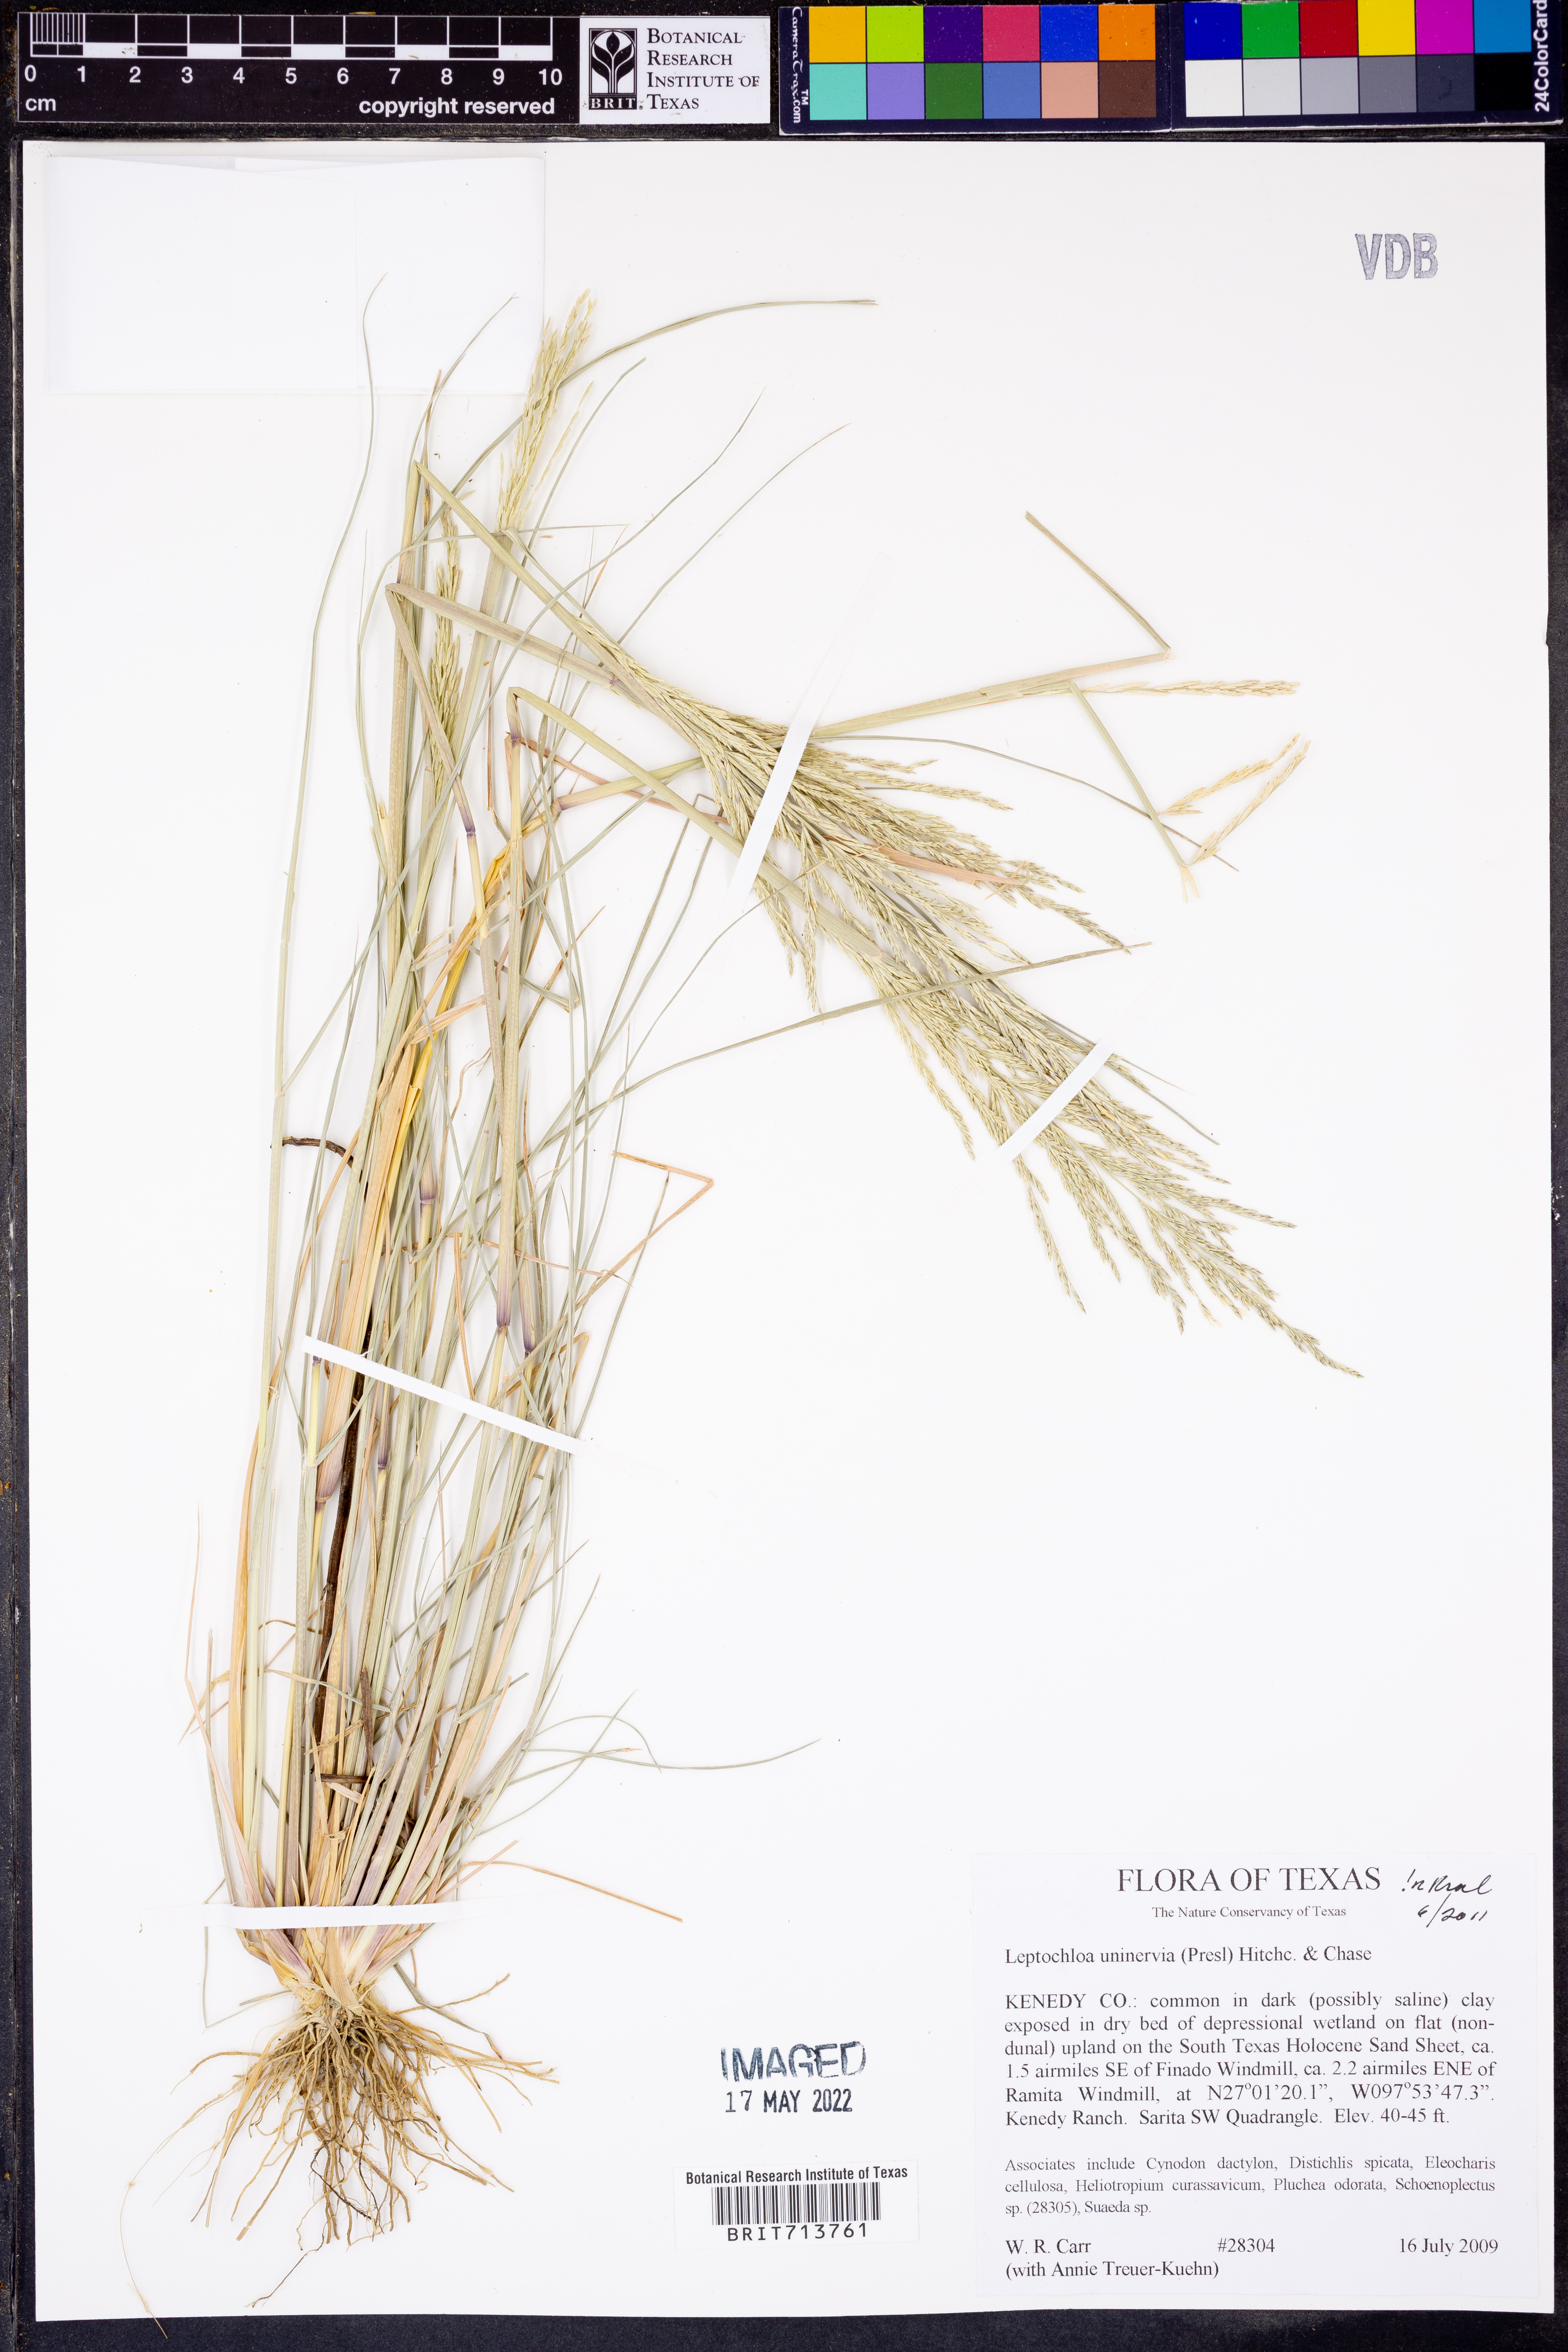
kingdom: Plantae
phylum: Tracheophyta
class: Liliopsida
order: Poales
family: Poaceae
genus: Diplachne
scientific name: Diplachne fusca
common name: Brown beetle grass
